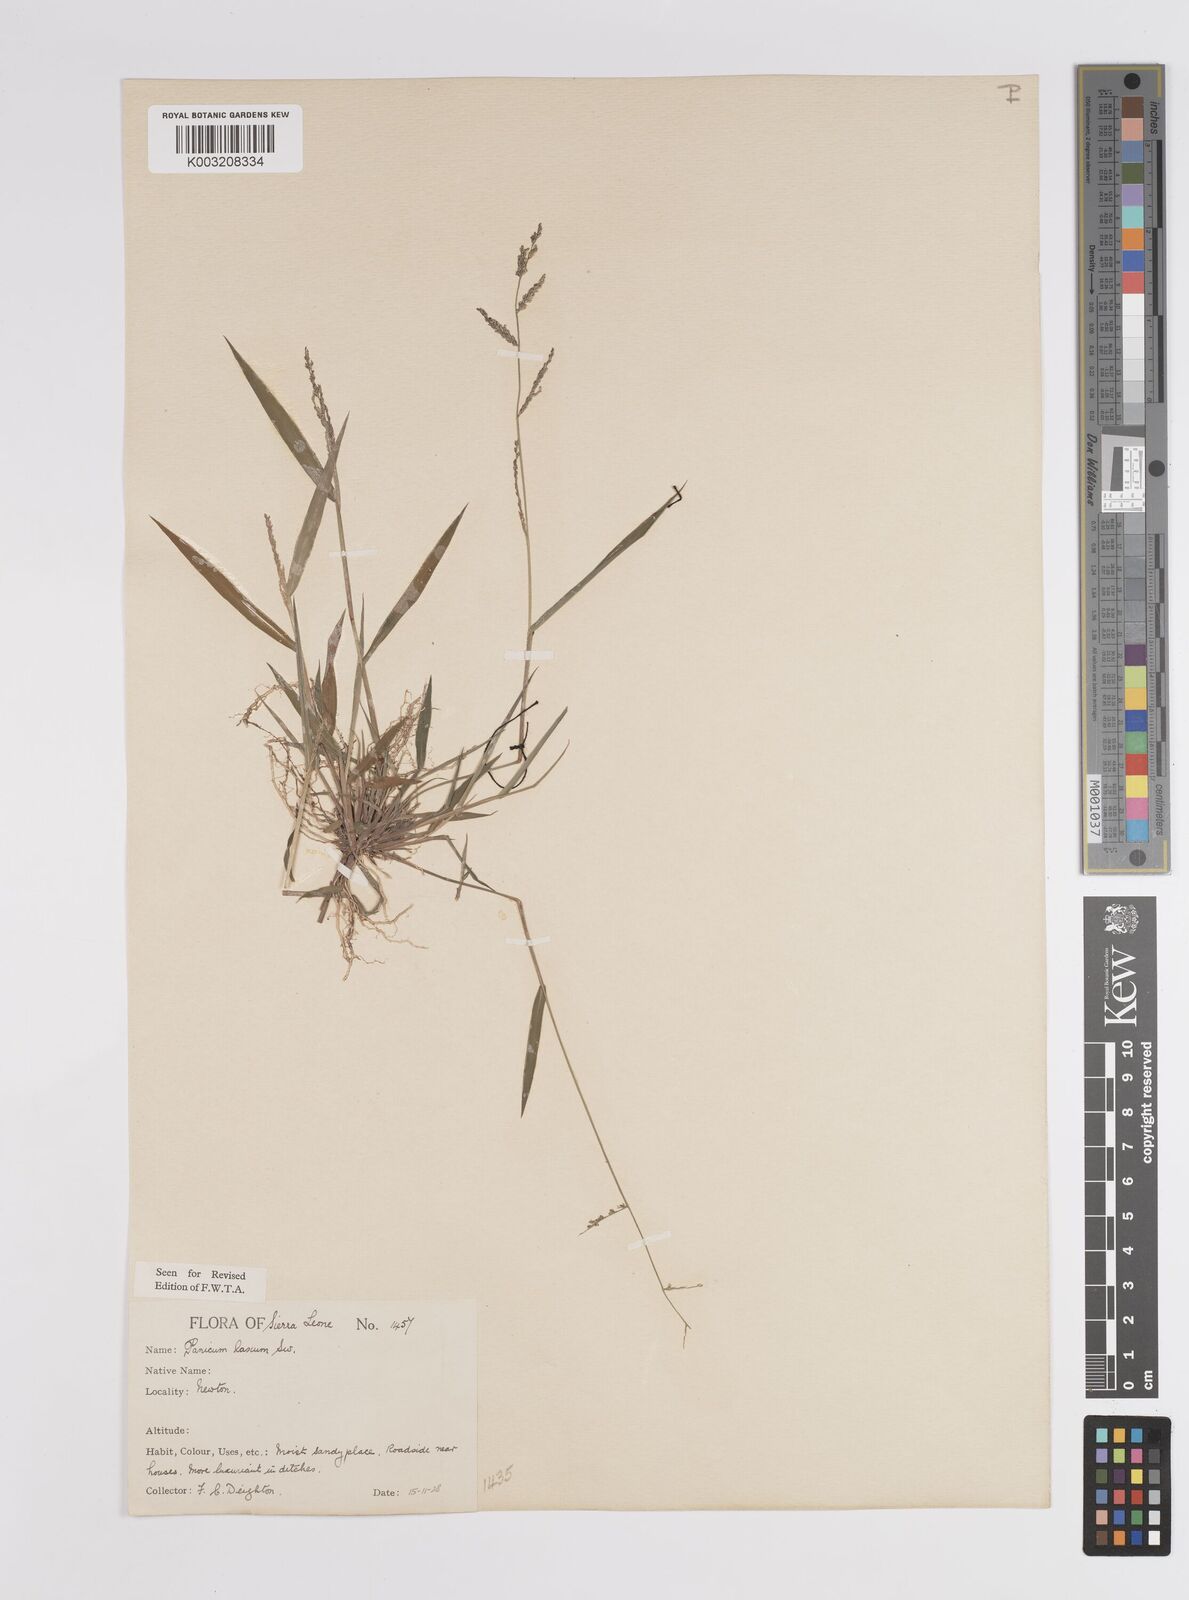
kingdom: Plantae
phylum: Tracheophyta
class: Liliopsida
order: Poales
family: Poaceae
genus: Steinchisma
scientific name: Steinchisma laxum
